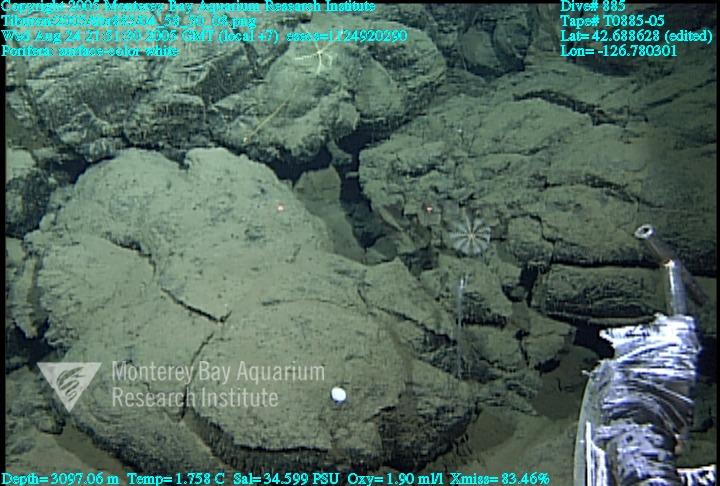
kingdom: Animalia
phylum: Porifera
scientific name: Porifera
